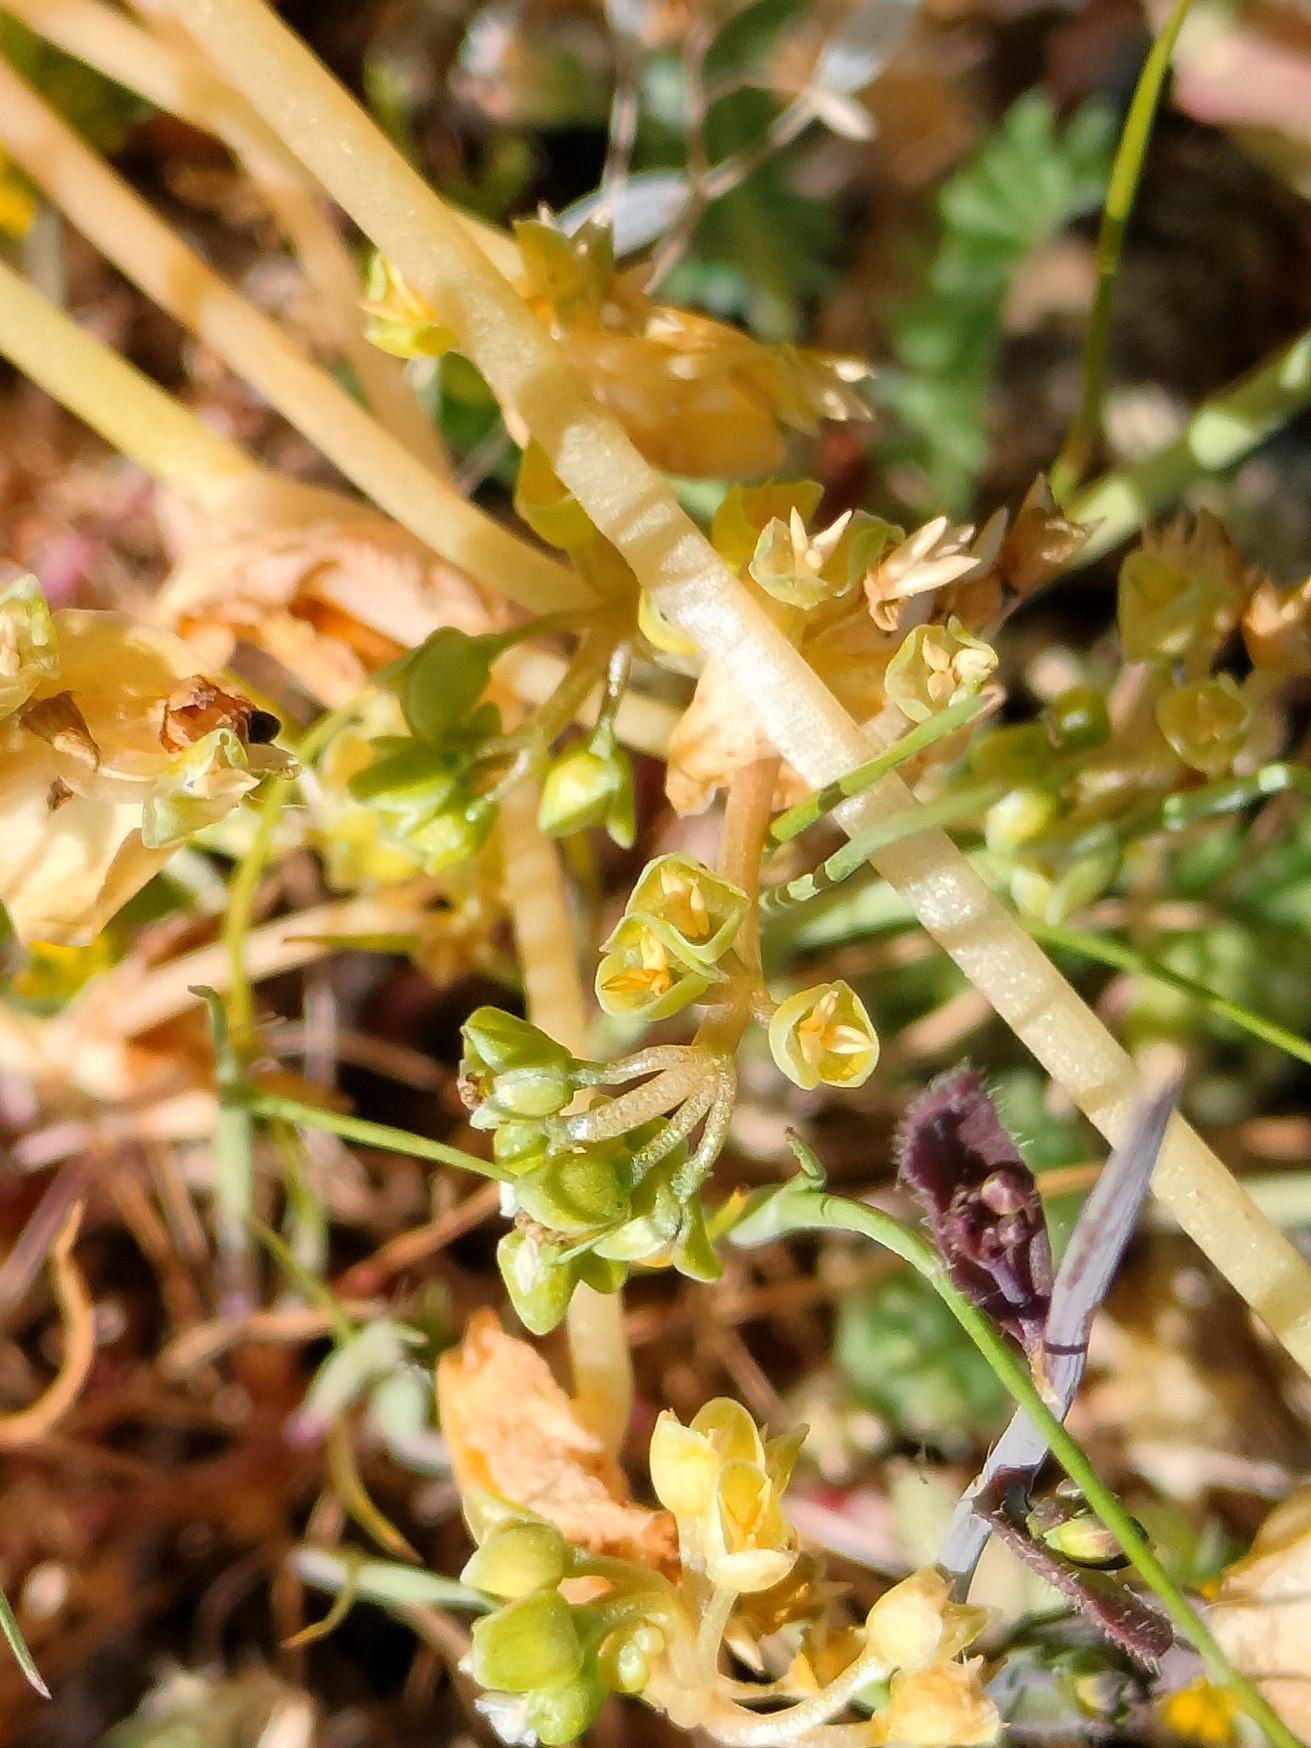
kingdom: Plantae
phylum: Tracheophyta
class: Magnoliopsida
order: Caryophyllales
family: Montiaceae
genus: Claytonia
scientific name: Claytonia perfoliata
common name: Spiselig vinterportulak
